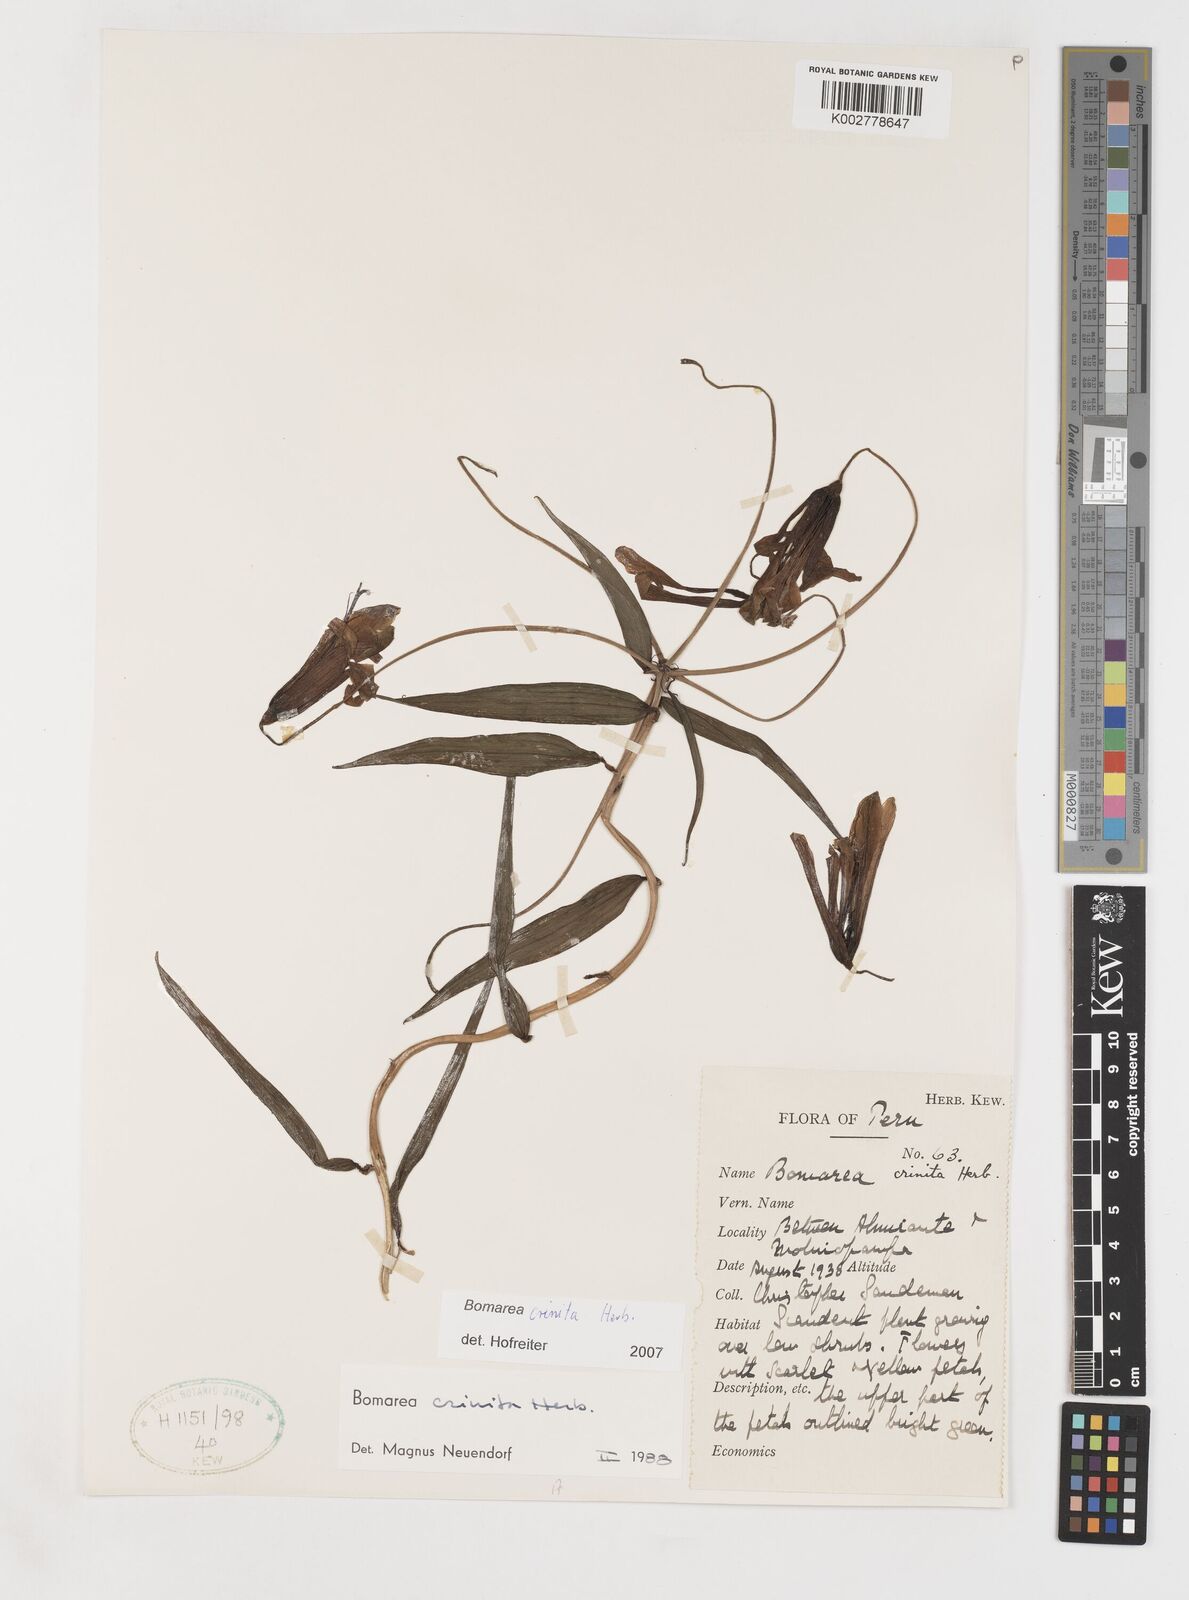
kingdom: Plantae
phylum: Tracheophyta
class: Liliopsida
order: Liliales
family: Alstroemeriaceae
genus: Bomarea
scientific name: Bomarea crinita
